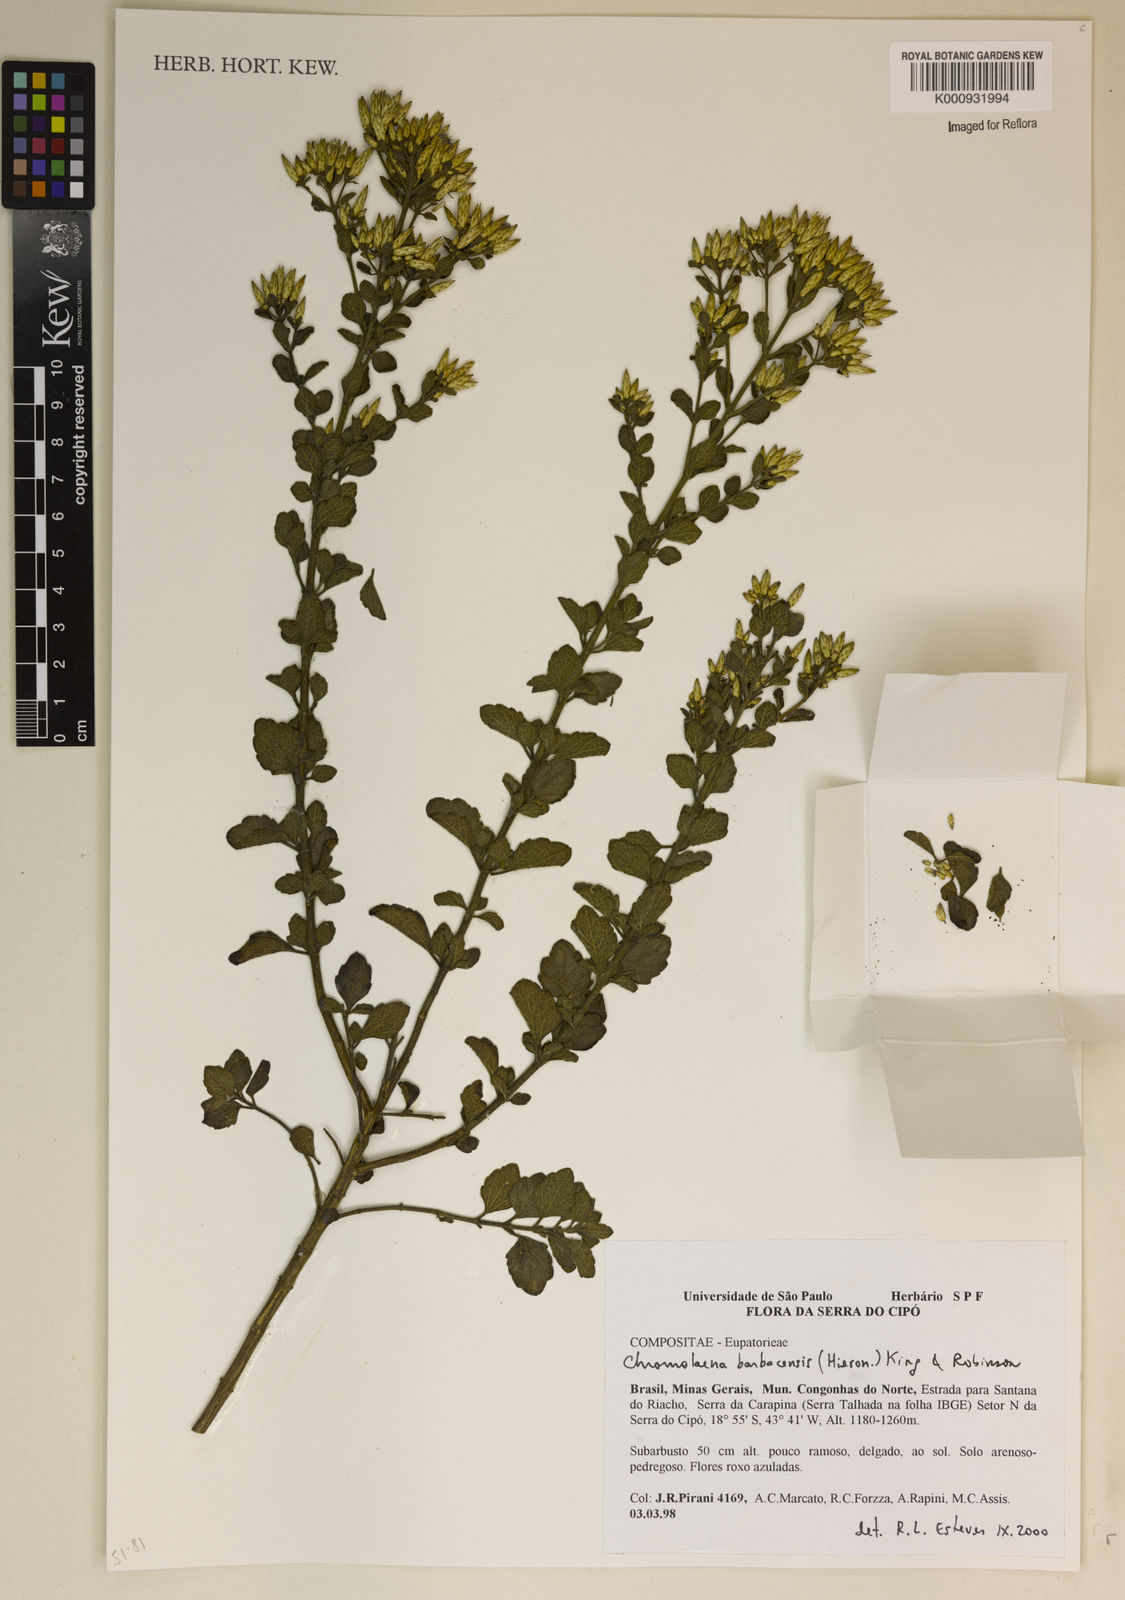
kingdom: Plantae
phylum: Tracheophyta
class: Magnoliopsida
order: Asterales
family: Asteraceae
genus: Chromolaena
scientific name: Chromolaena barbacensis
